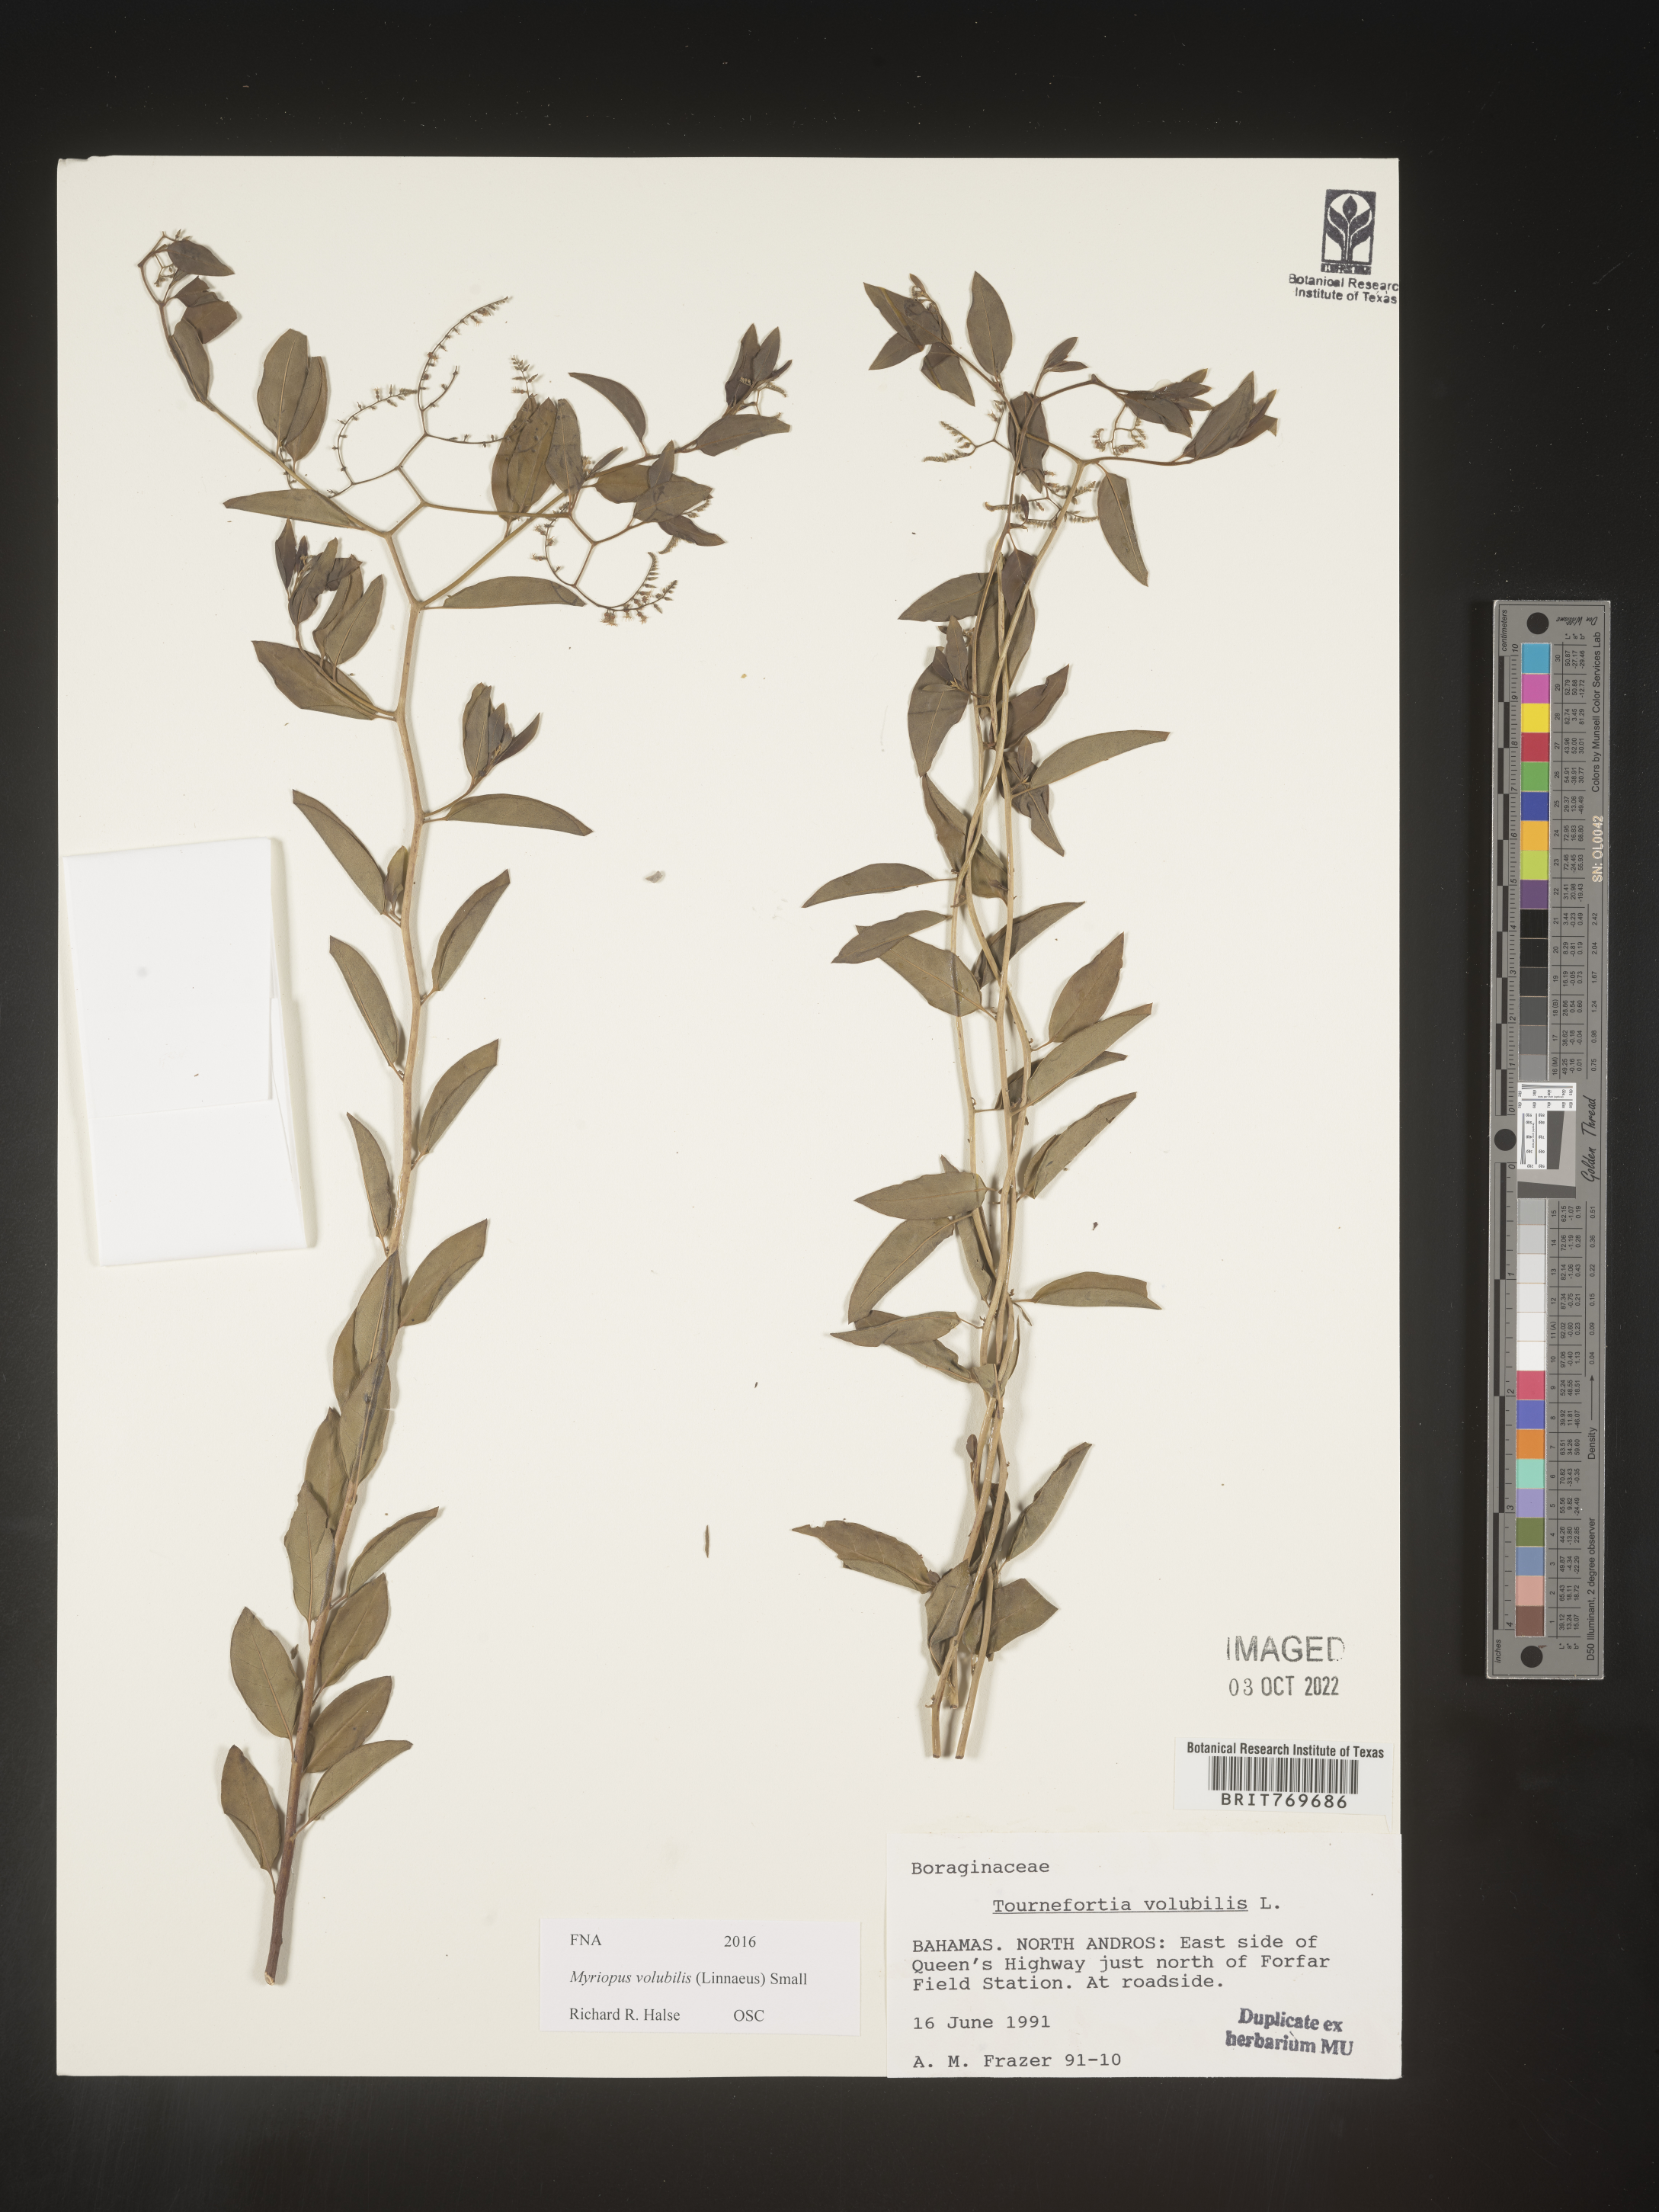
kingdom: Plantae
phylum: Tracheophyta
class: Magnoliopsida
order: Boraginales
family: Heliotropiaceae
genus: Myriopus
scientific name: Myriopus
